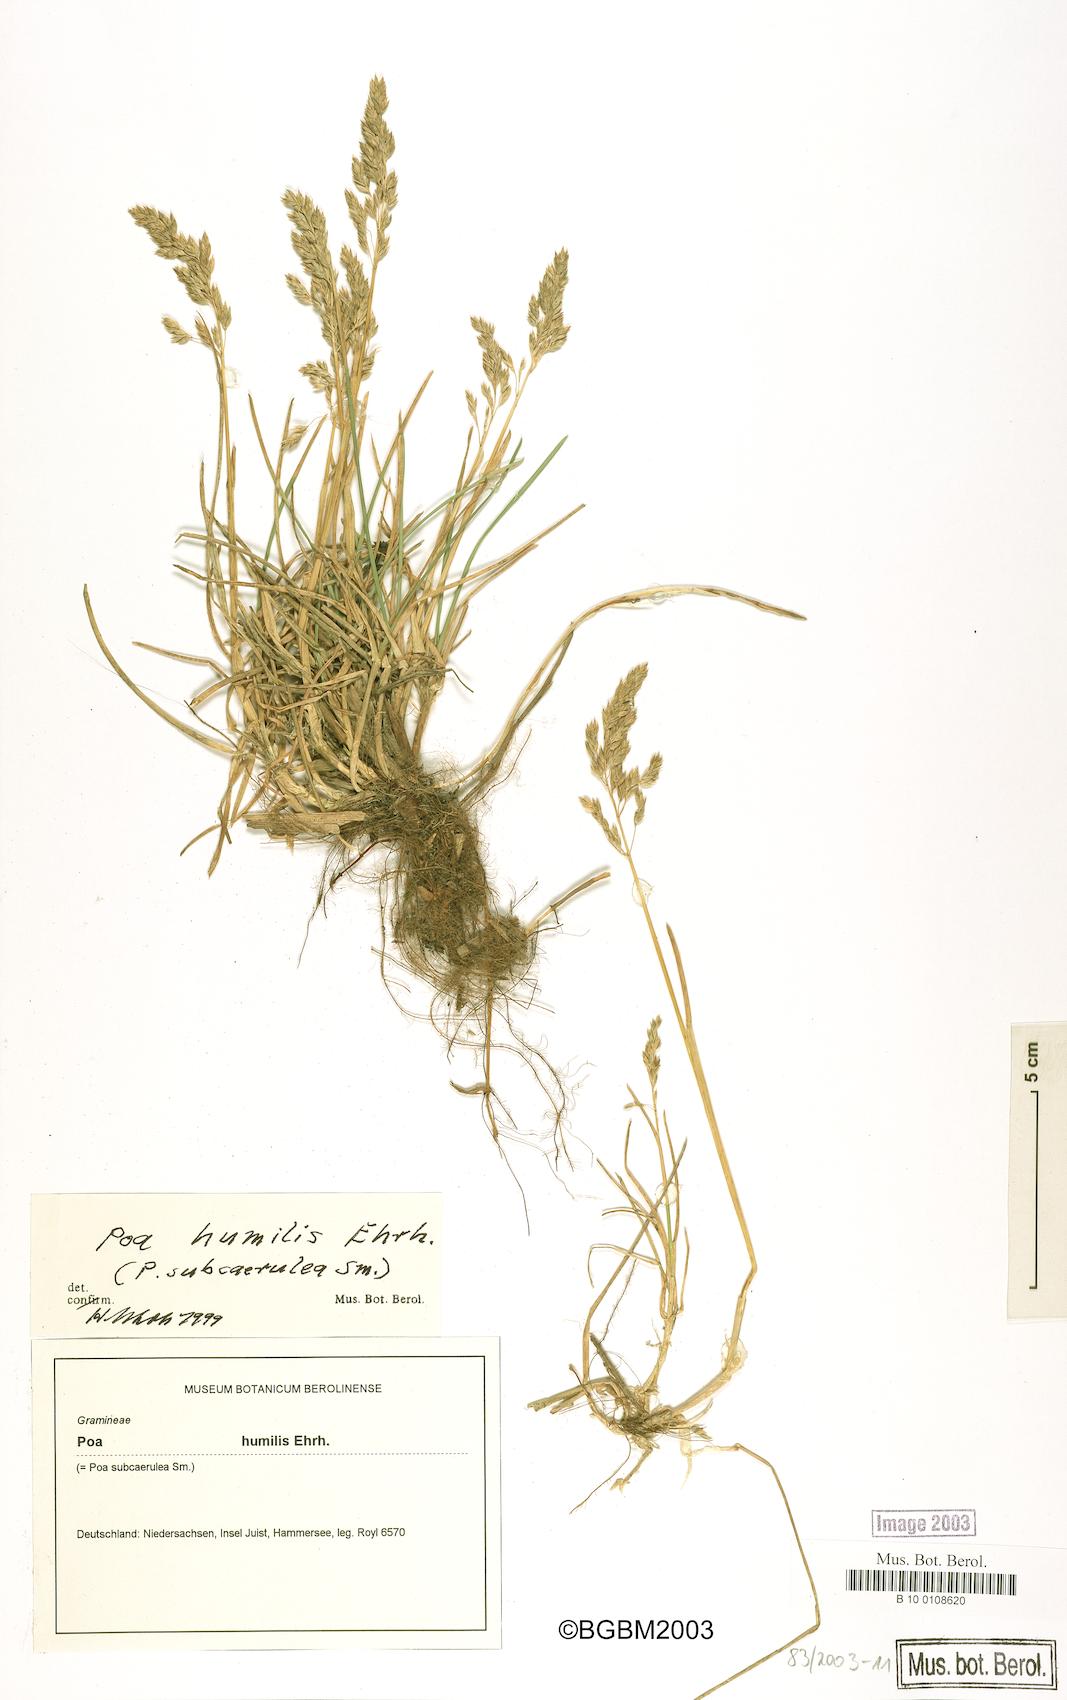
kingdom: Plantae
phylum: Tracheophyta
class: Liliopsida
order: Poales
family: Poaceae
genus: Poa
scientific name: Poa humilis
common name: Spreading meadow-grass
